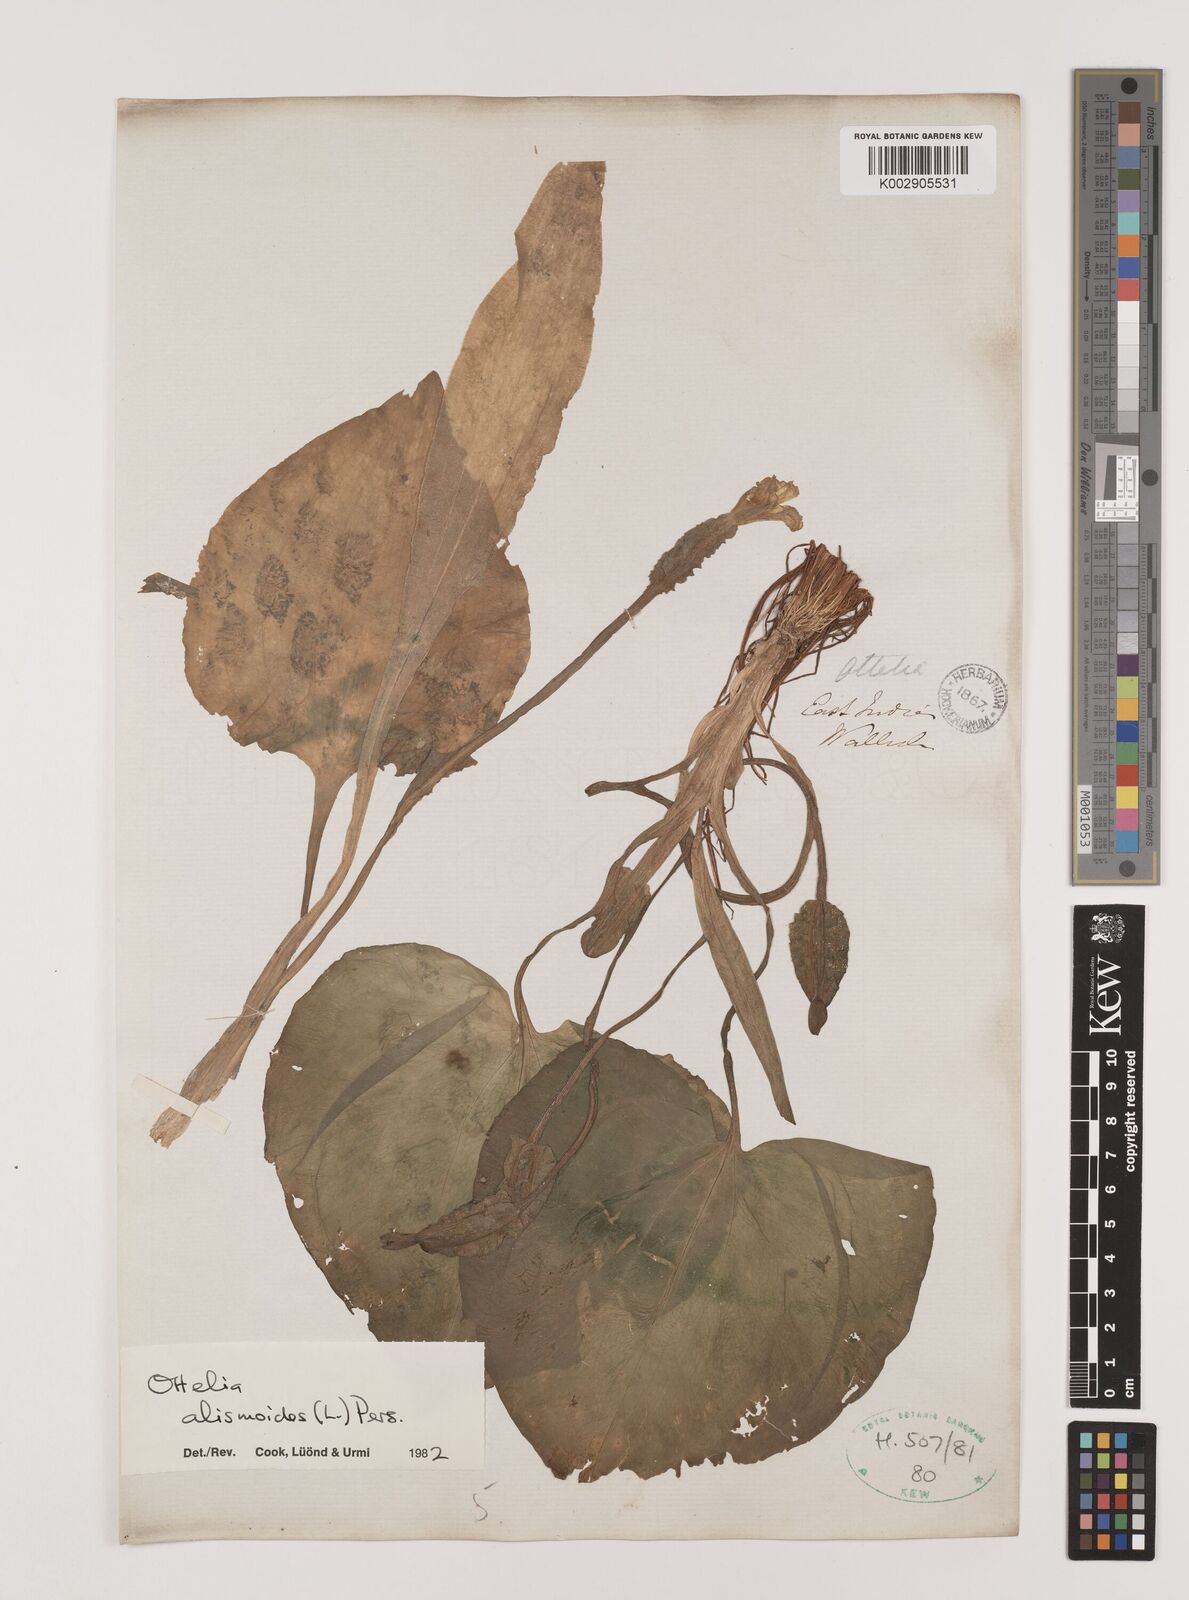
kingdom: Plantae
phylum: Tracheophyta
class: Liliopsida
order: Alismatales
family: Hydrocharitaceae
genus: Ottelia
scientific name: Ottelia alismoides
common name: Duck-lettuce
